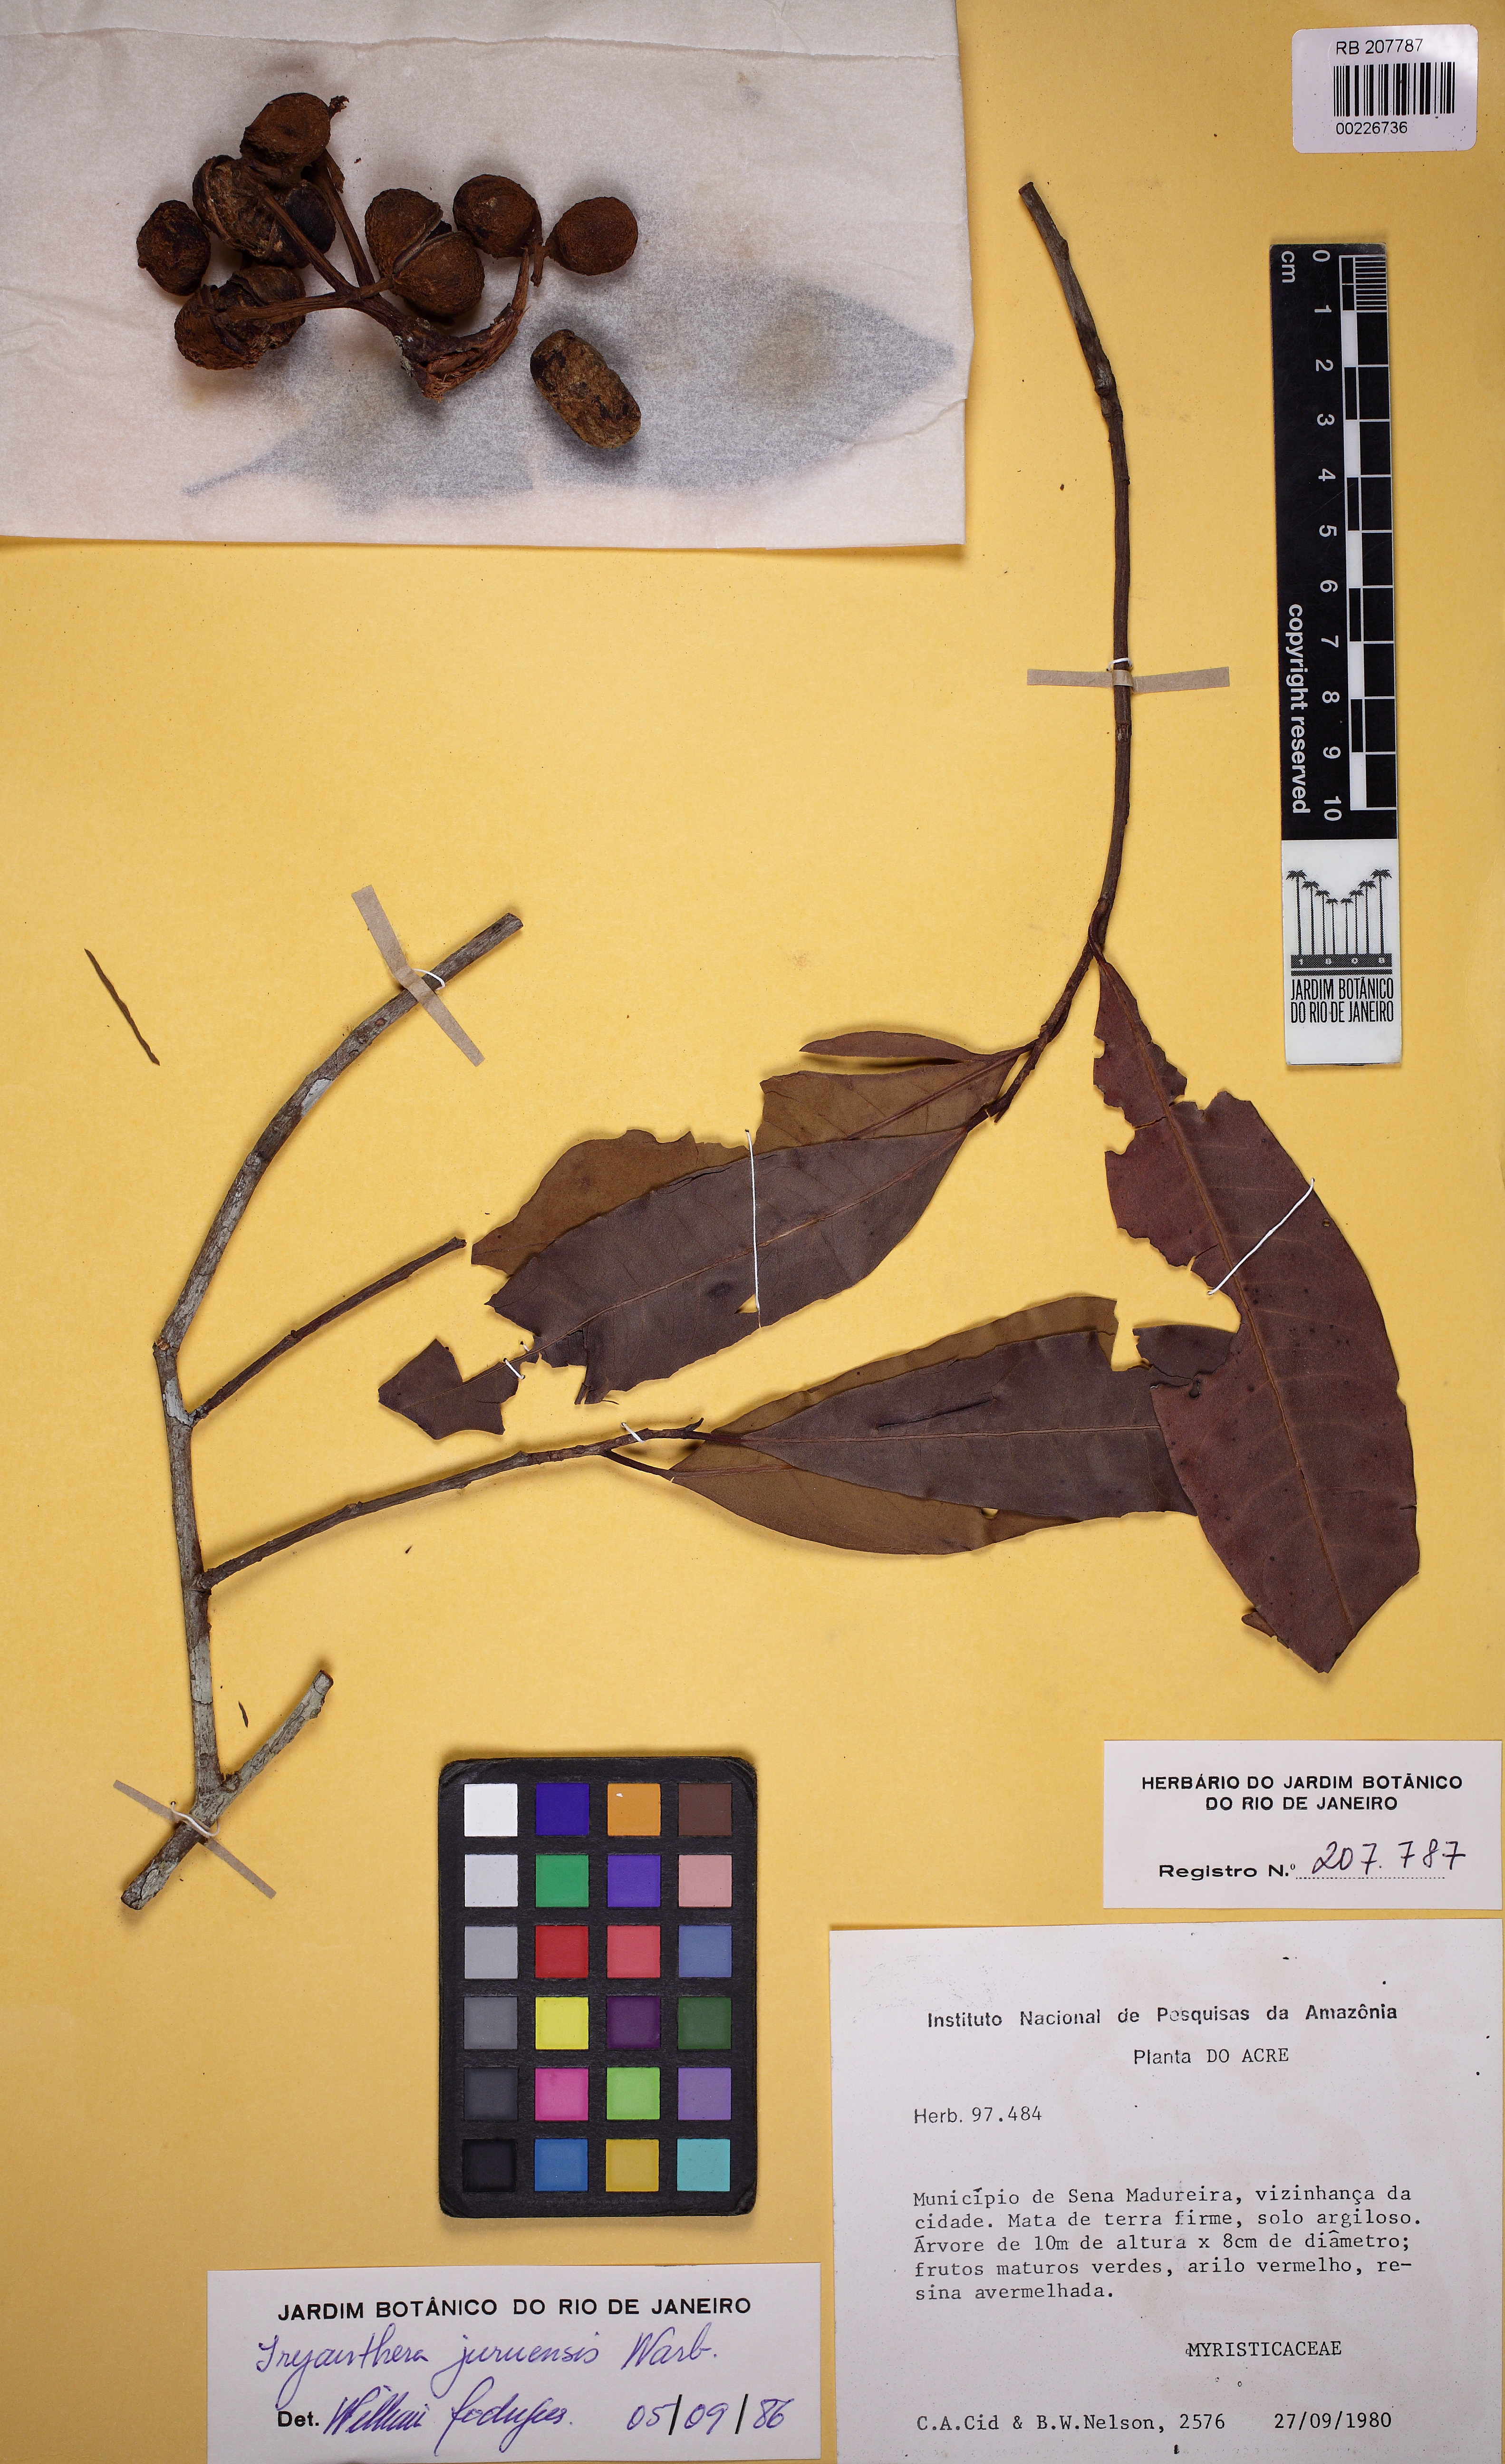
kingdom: Plantae
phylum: Tracheophyta
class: Magnoliopsida
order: Magnoliales
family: Myristicaceae
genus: Iryanthera
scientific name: Iryanthera juruensis
